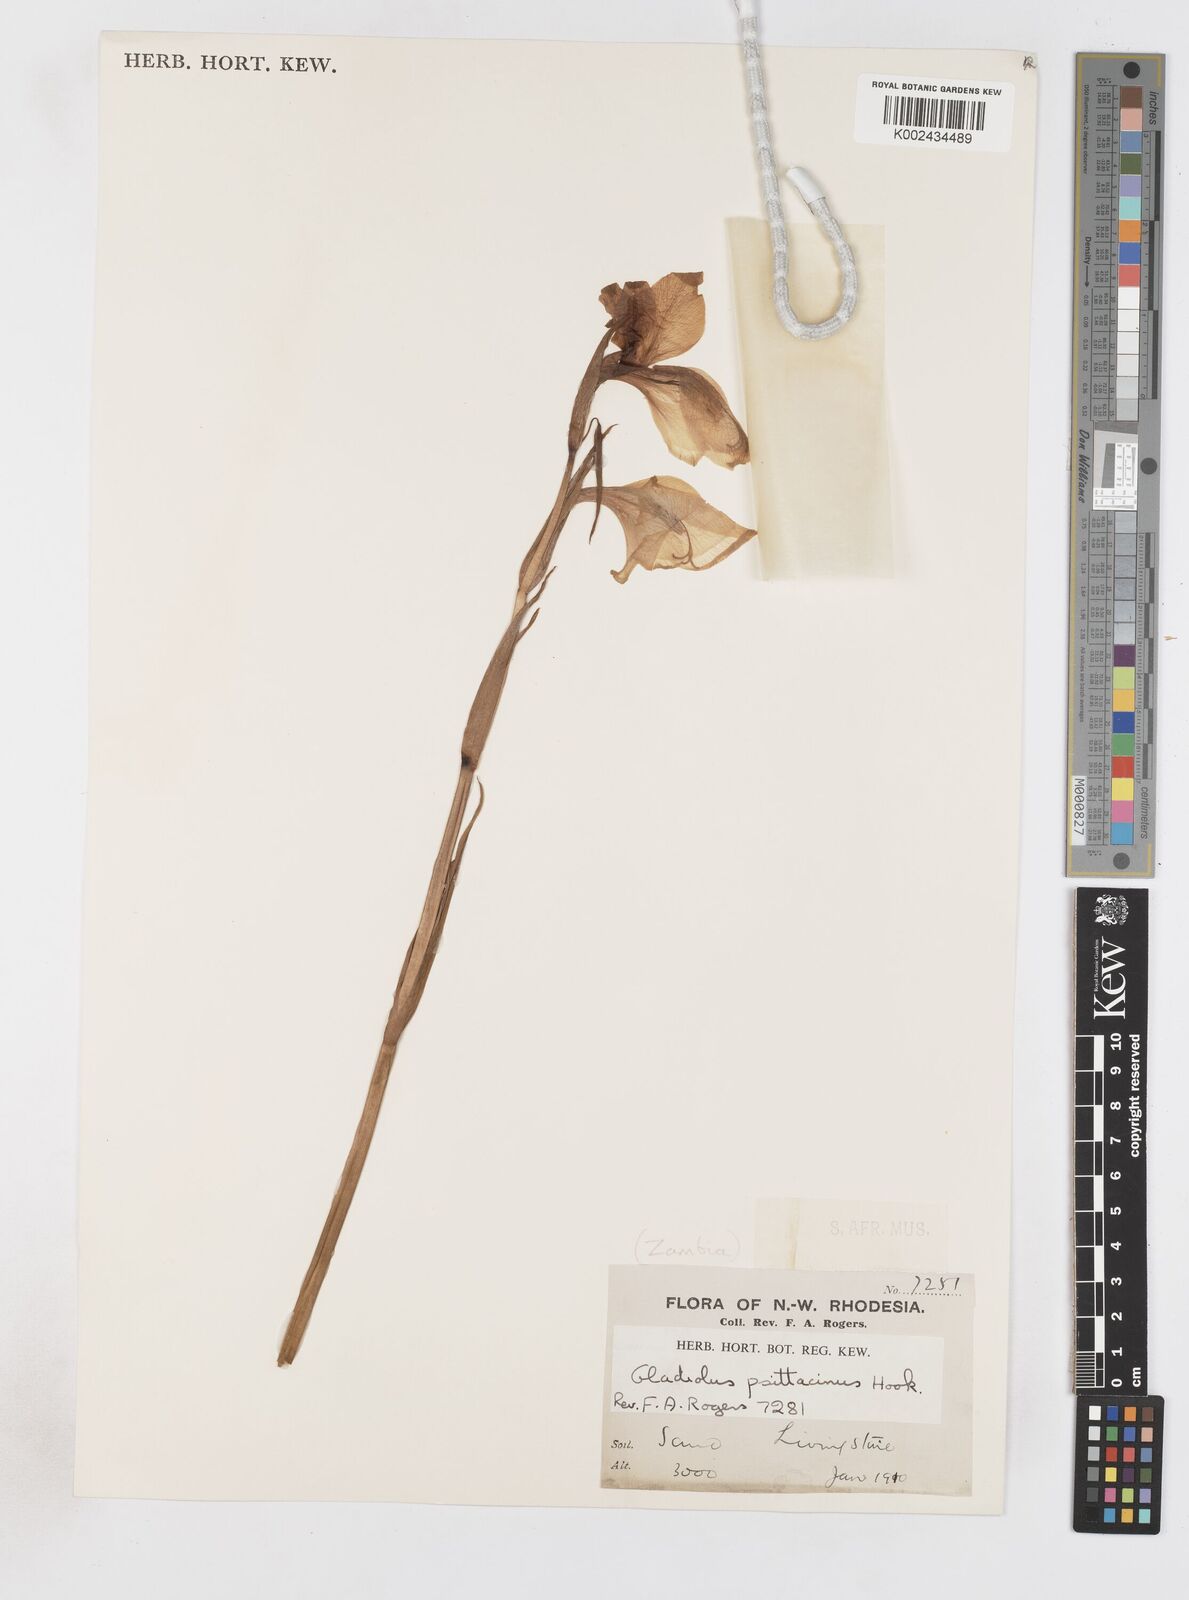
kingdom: Plantae
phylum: Tracheophyta
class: Liliopsida
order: Asparagales
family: Iridaceae
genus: Gladiolus
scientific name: Gladiolus dalenii
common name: Cornflag
